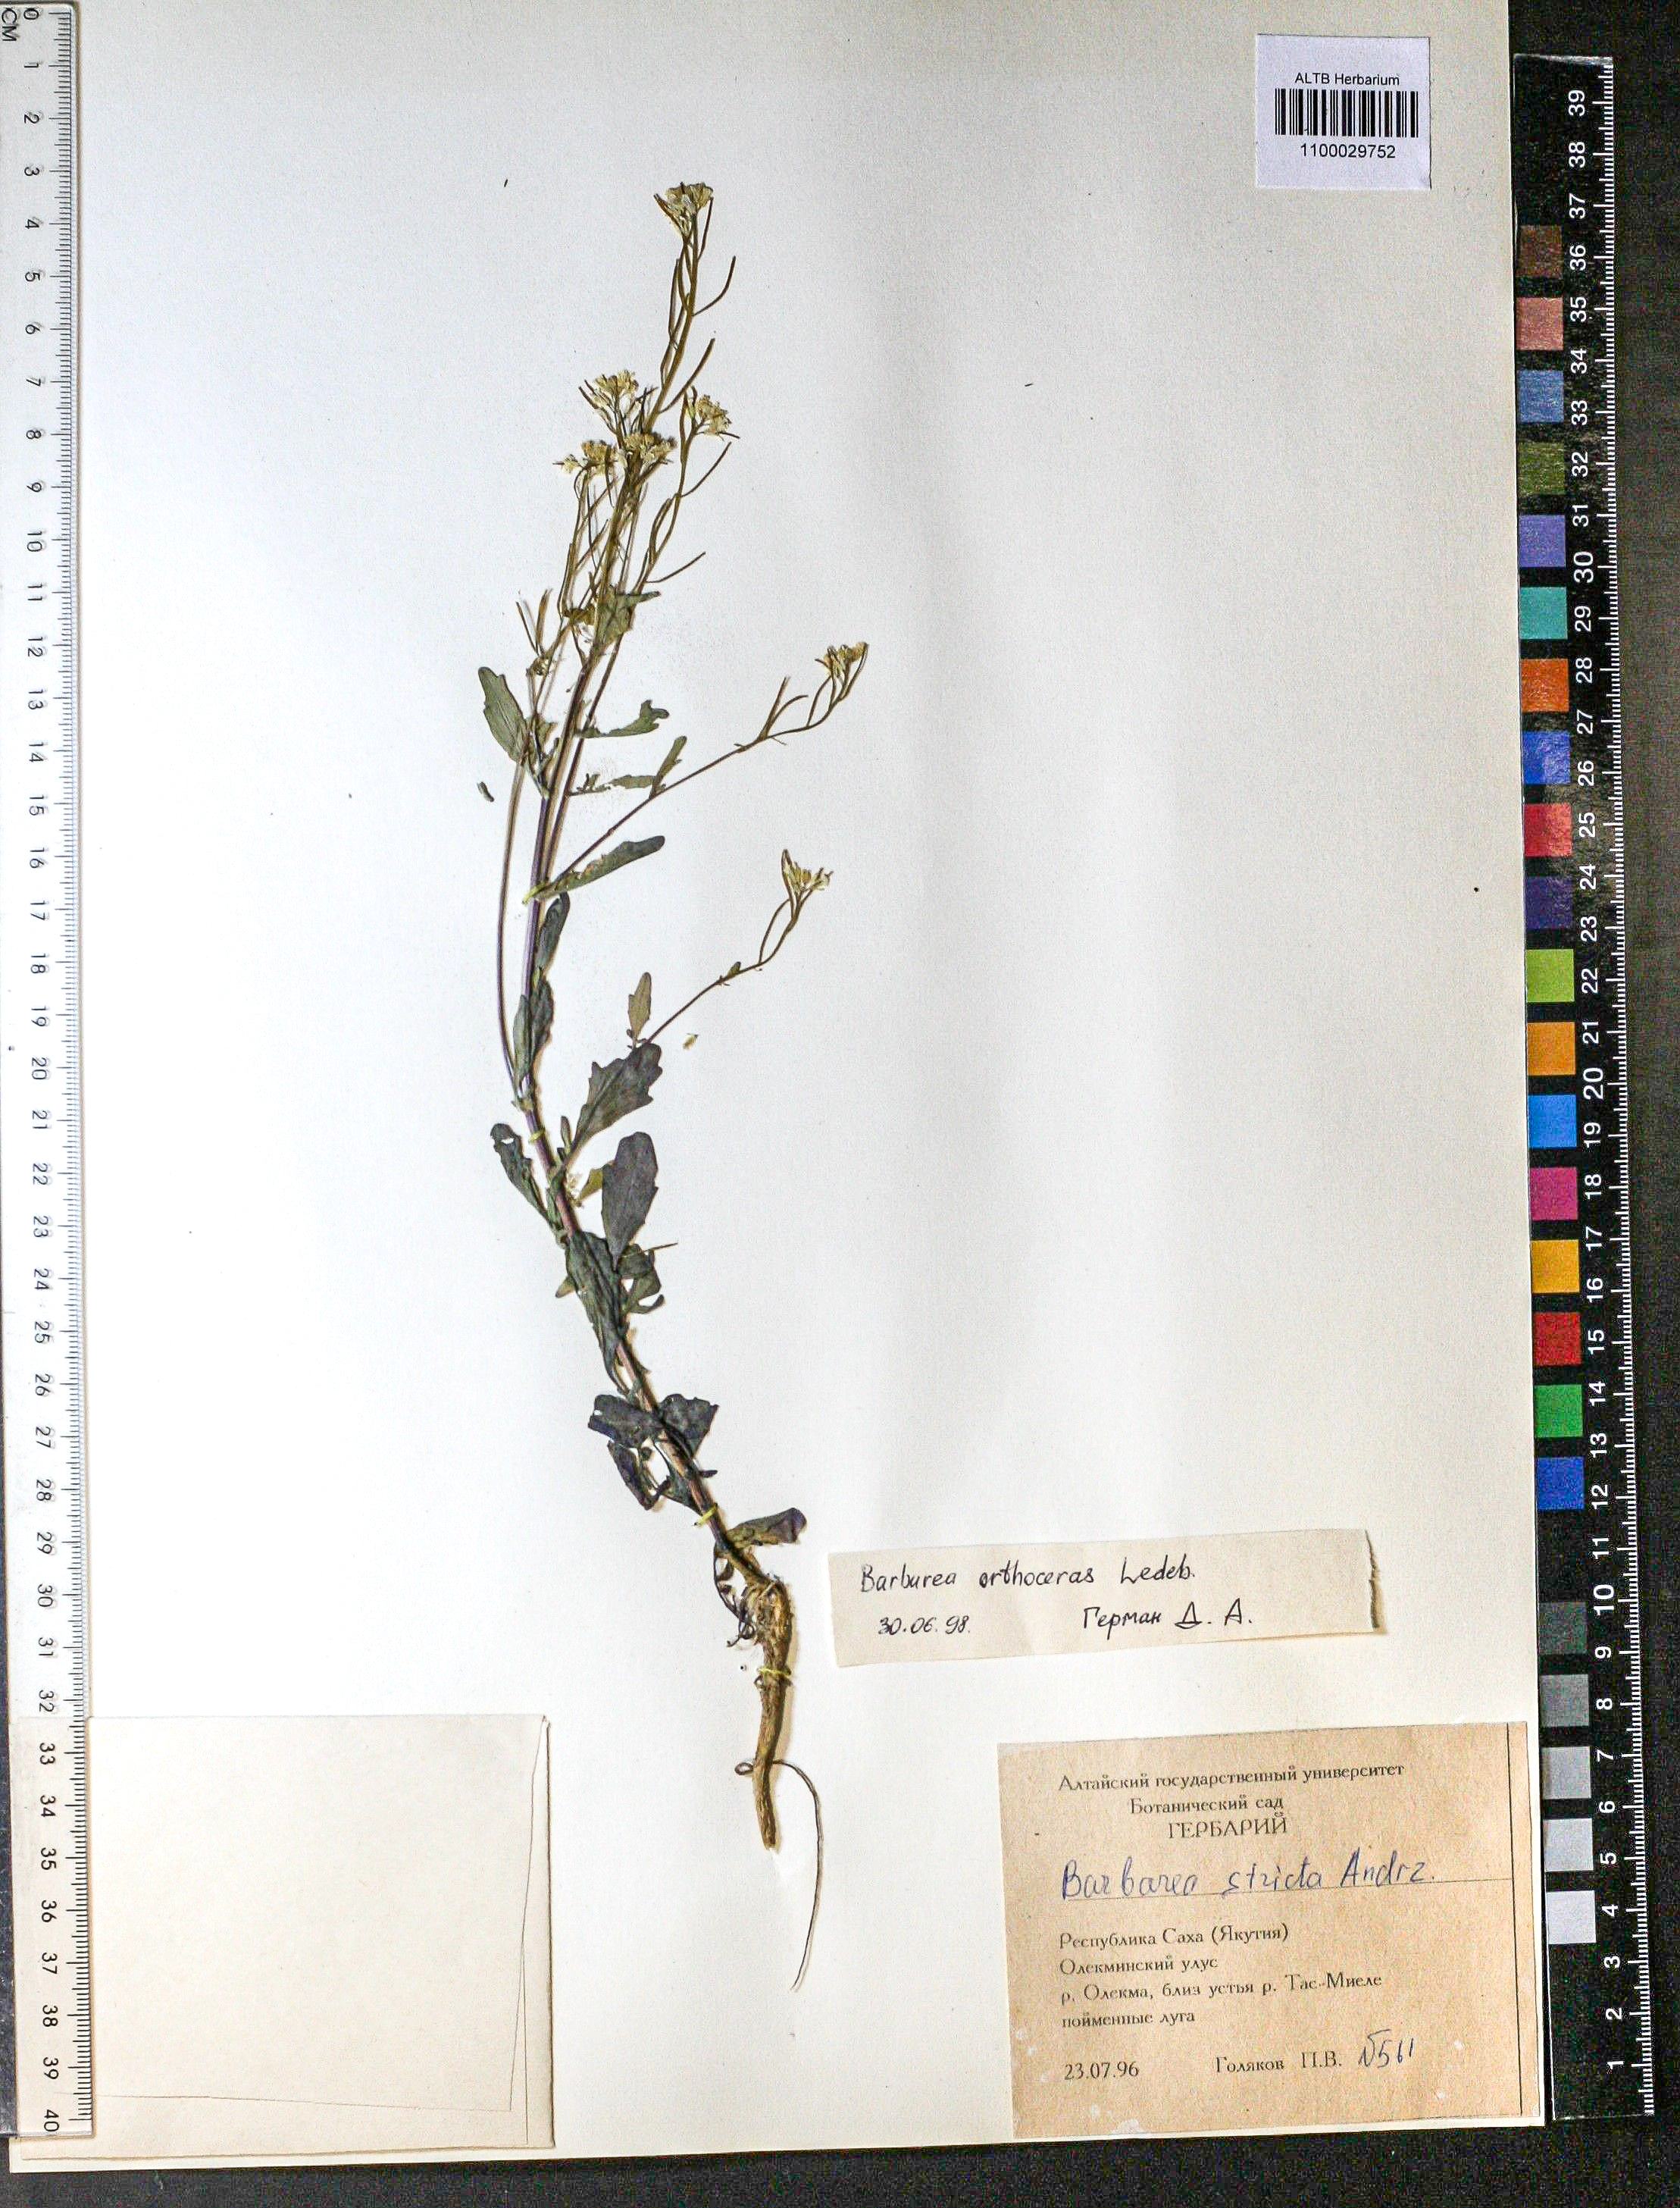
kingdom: Plantae
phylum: Tracheophyta
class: Magnoliopsida
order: Brassicales
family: Brassicaceae
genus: Barbarea
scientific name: Barbarea orthoceras
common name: American wintercress
